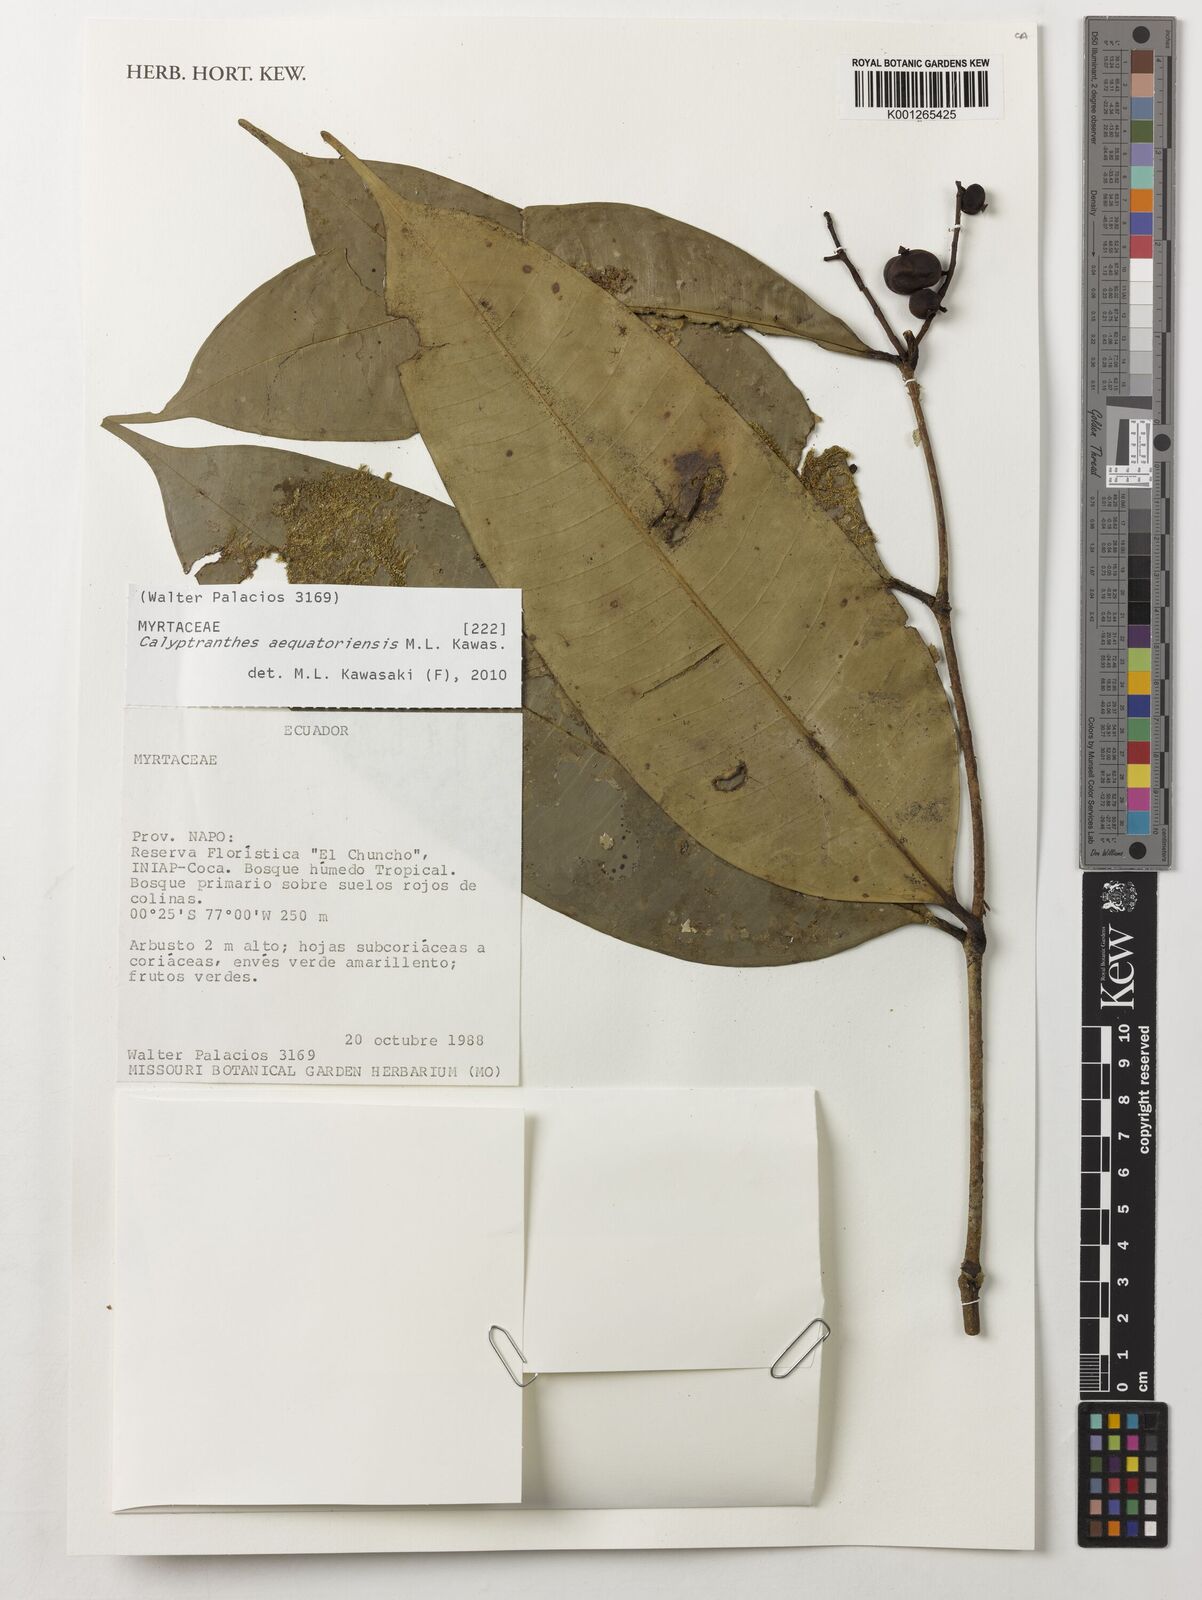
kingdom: Plantae
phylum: Tracheophyta
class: Magnoliopsida
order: Myrtales
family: Myrtaceae
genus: Myrcia
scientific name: Myrcia neoaequatoriensis
